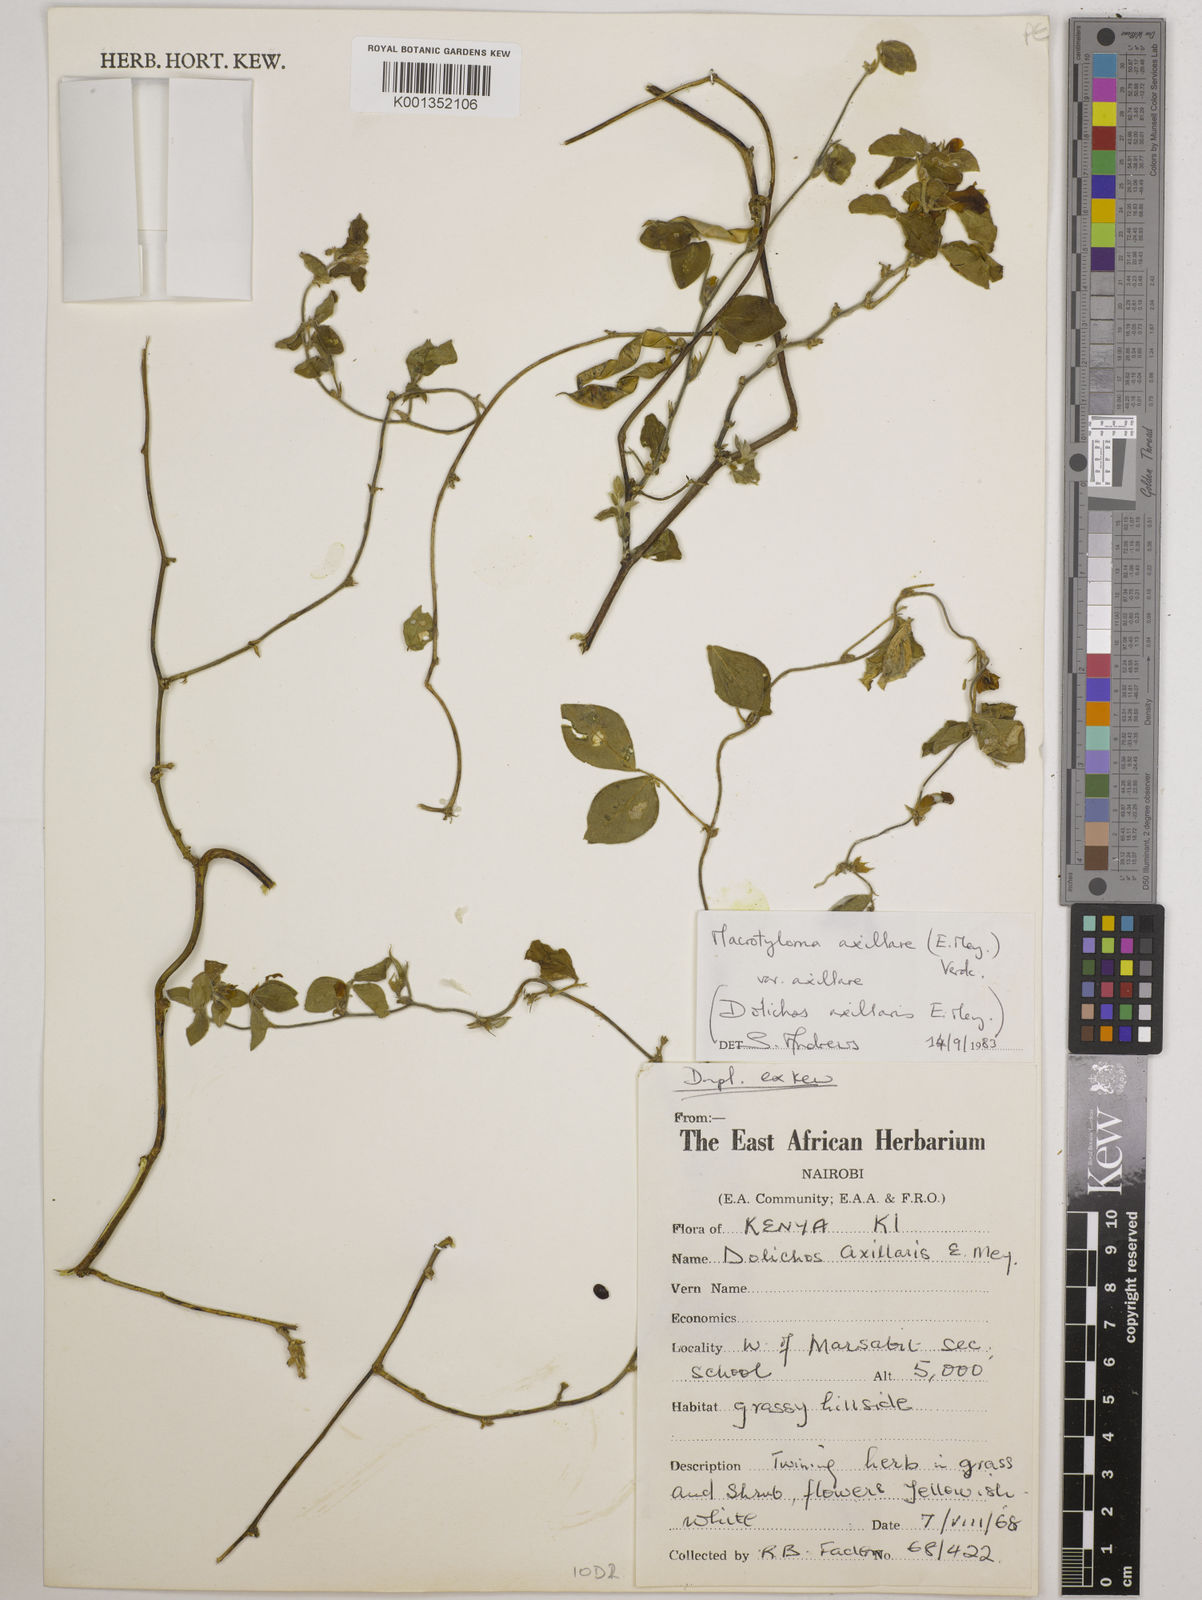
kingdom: Plantae
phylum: Tracheophyta
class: Magnoliopsida
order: Fabales
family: Fabaceae
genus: Macrotyloma
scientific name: Macrotyloma axillare
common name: Perennial horsegram
